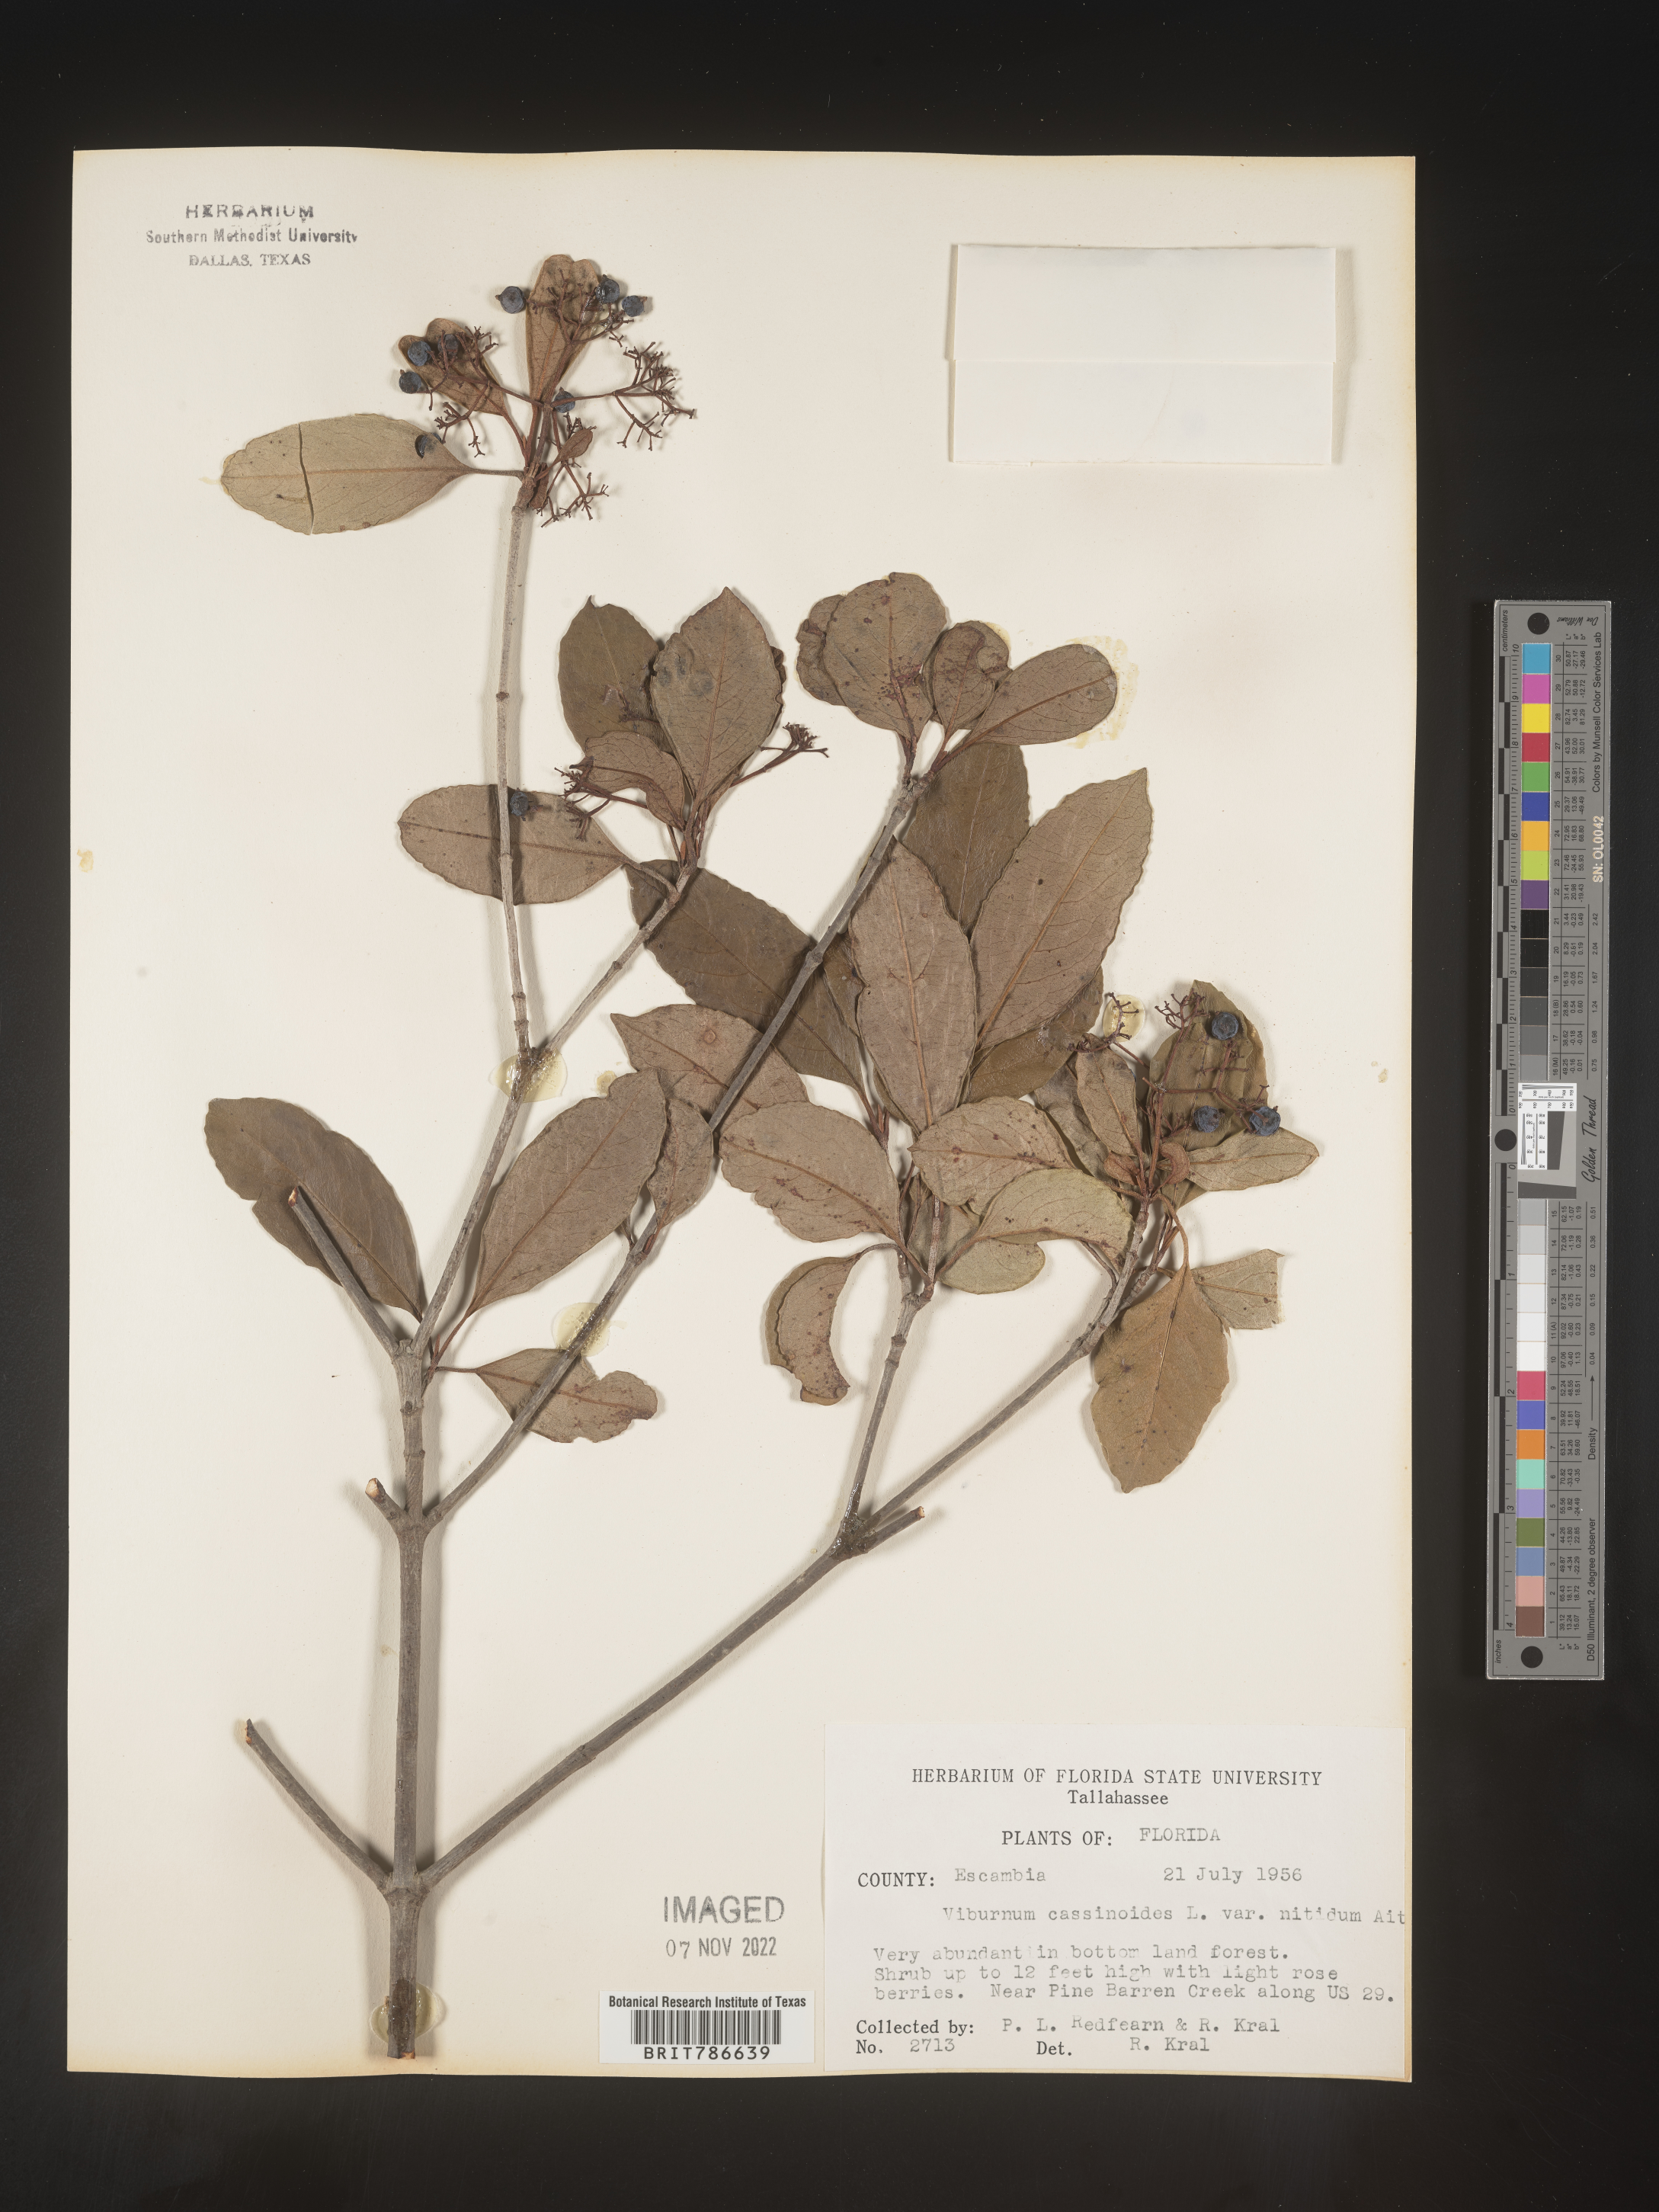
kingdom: Plantae
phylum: Tracheophyta
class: Magnoliopsida
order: Dipsacales
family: Viburnaceae
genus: Viburnum
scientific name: Viburnum cassinoides
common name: Swamp haw
